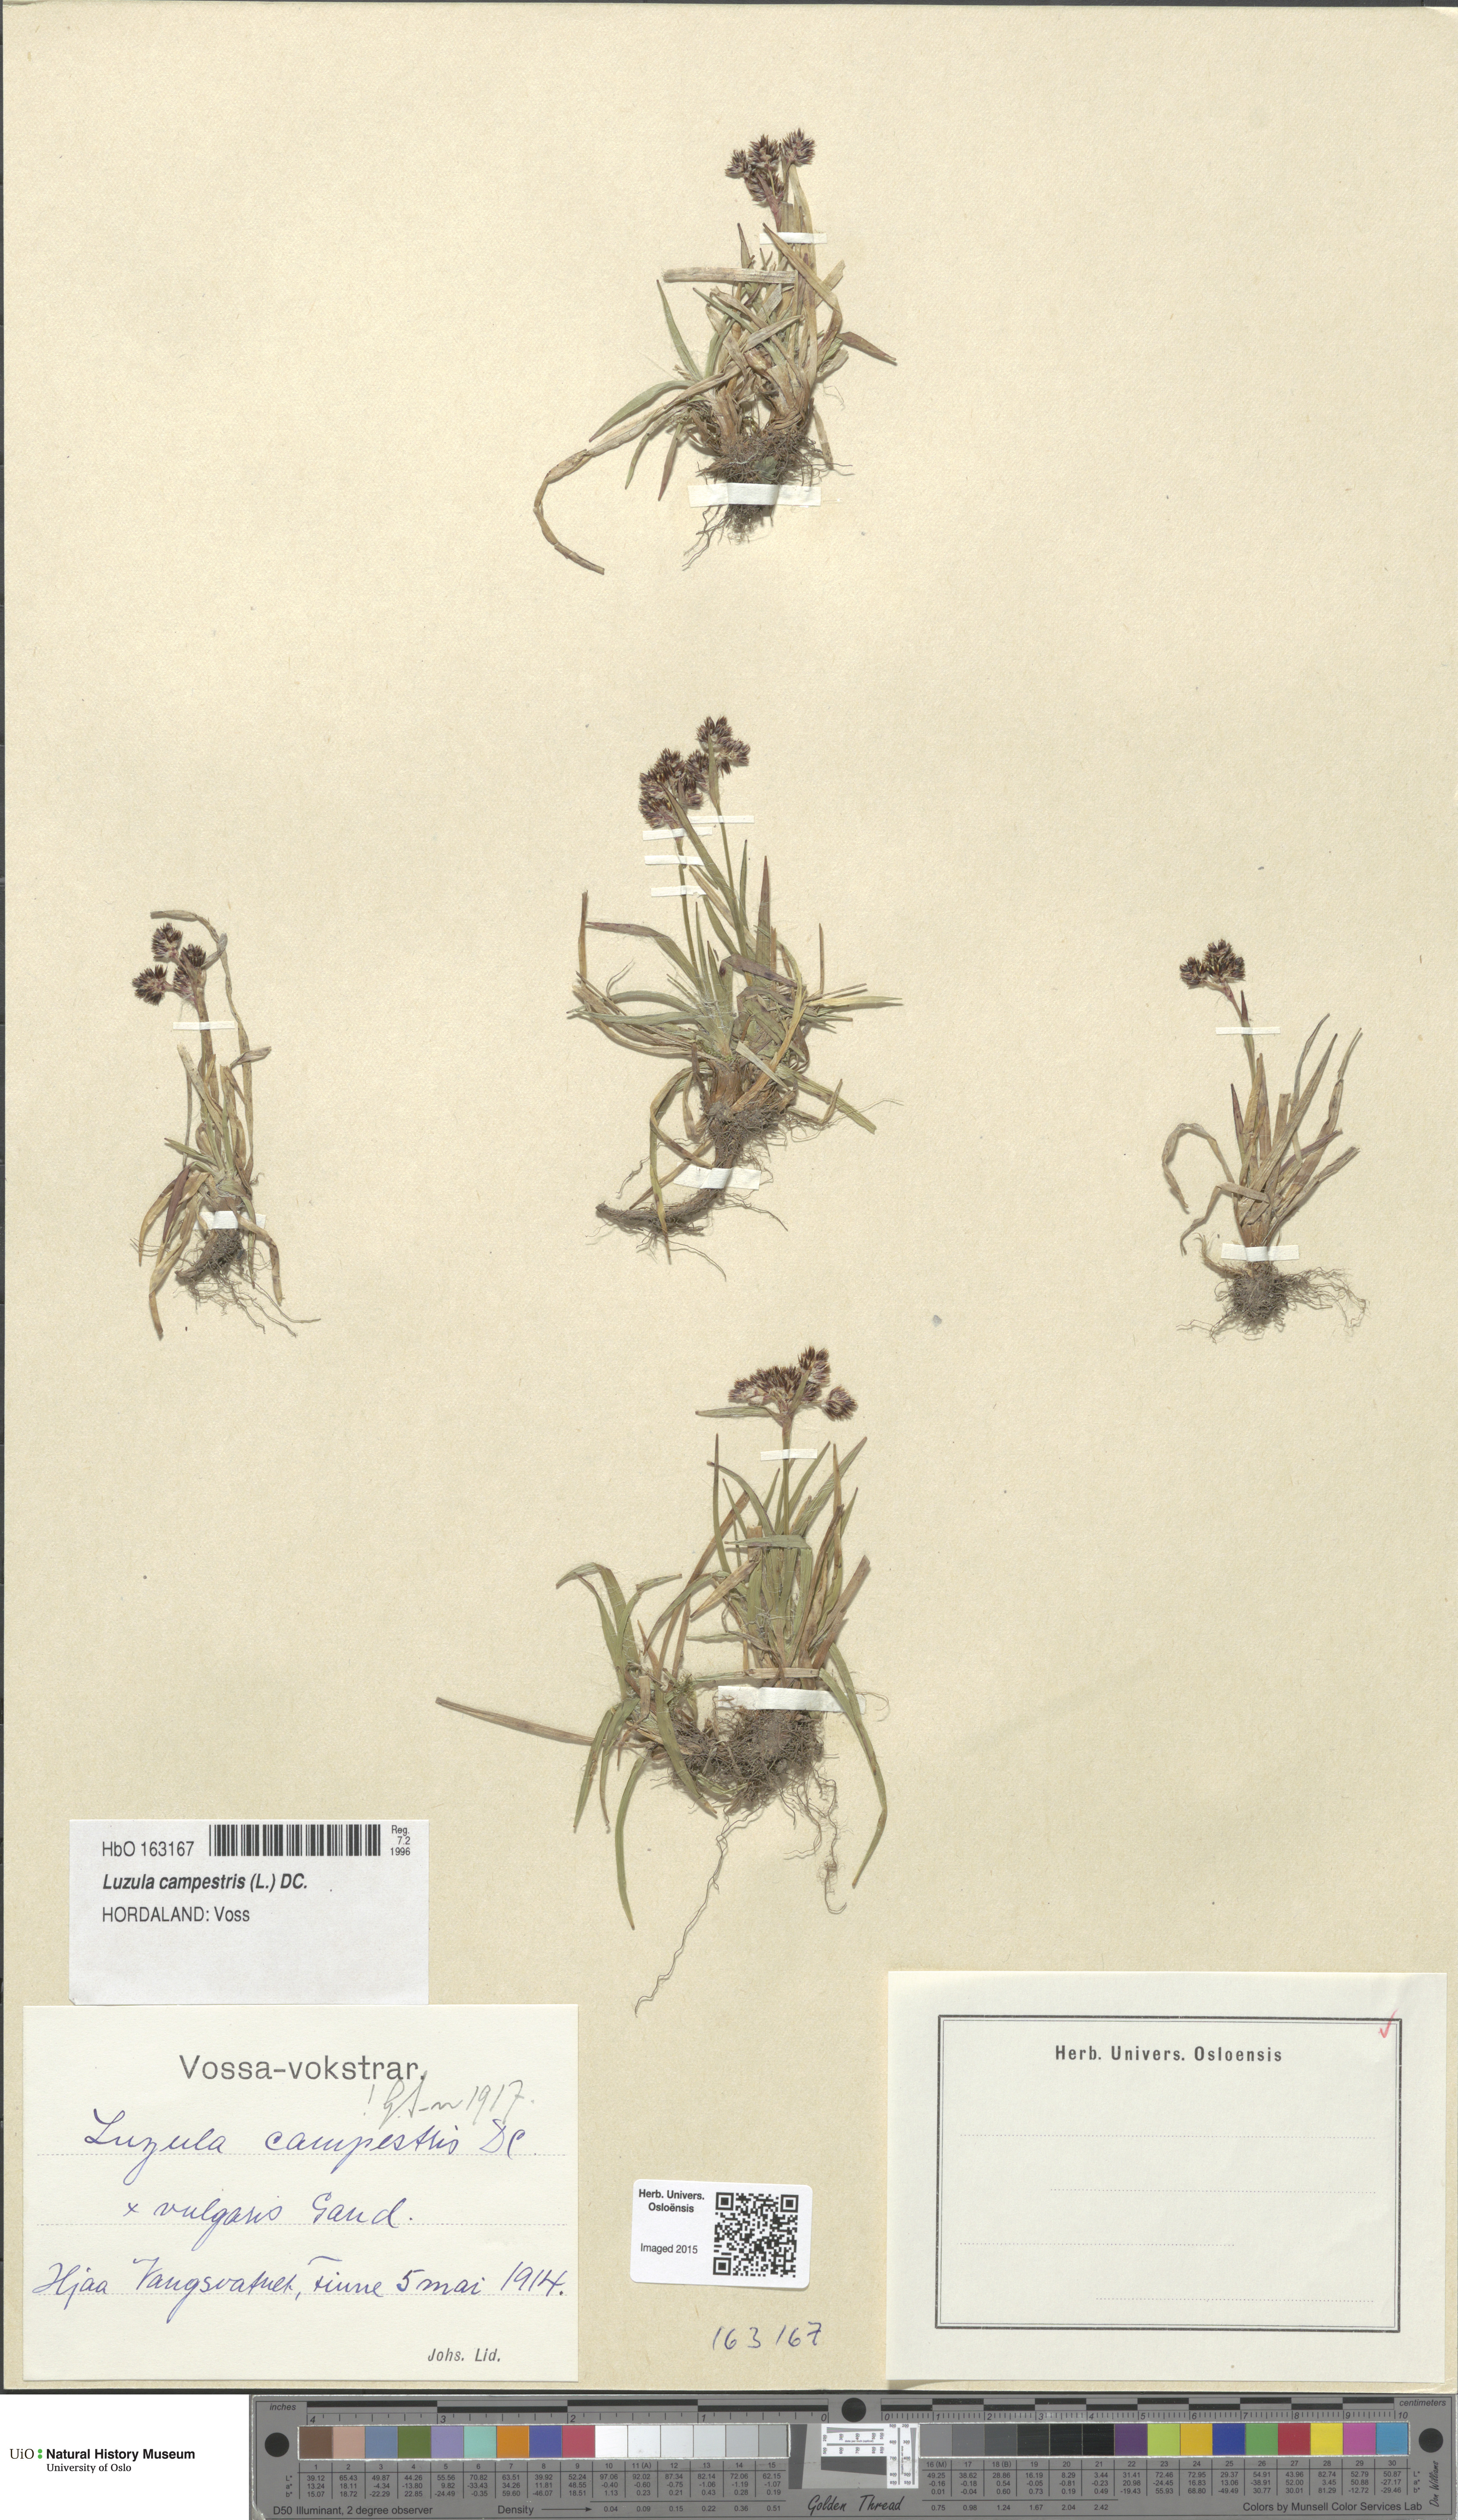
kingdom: Plantae
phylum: Tracheophyta
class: Liliopsida
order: Poales
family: Juncaceae
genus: Luzula
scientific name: Luzula campestris
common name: Field wood-rush
